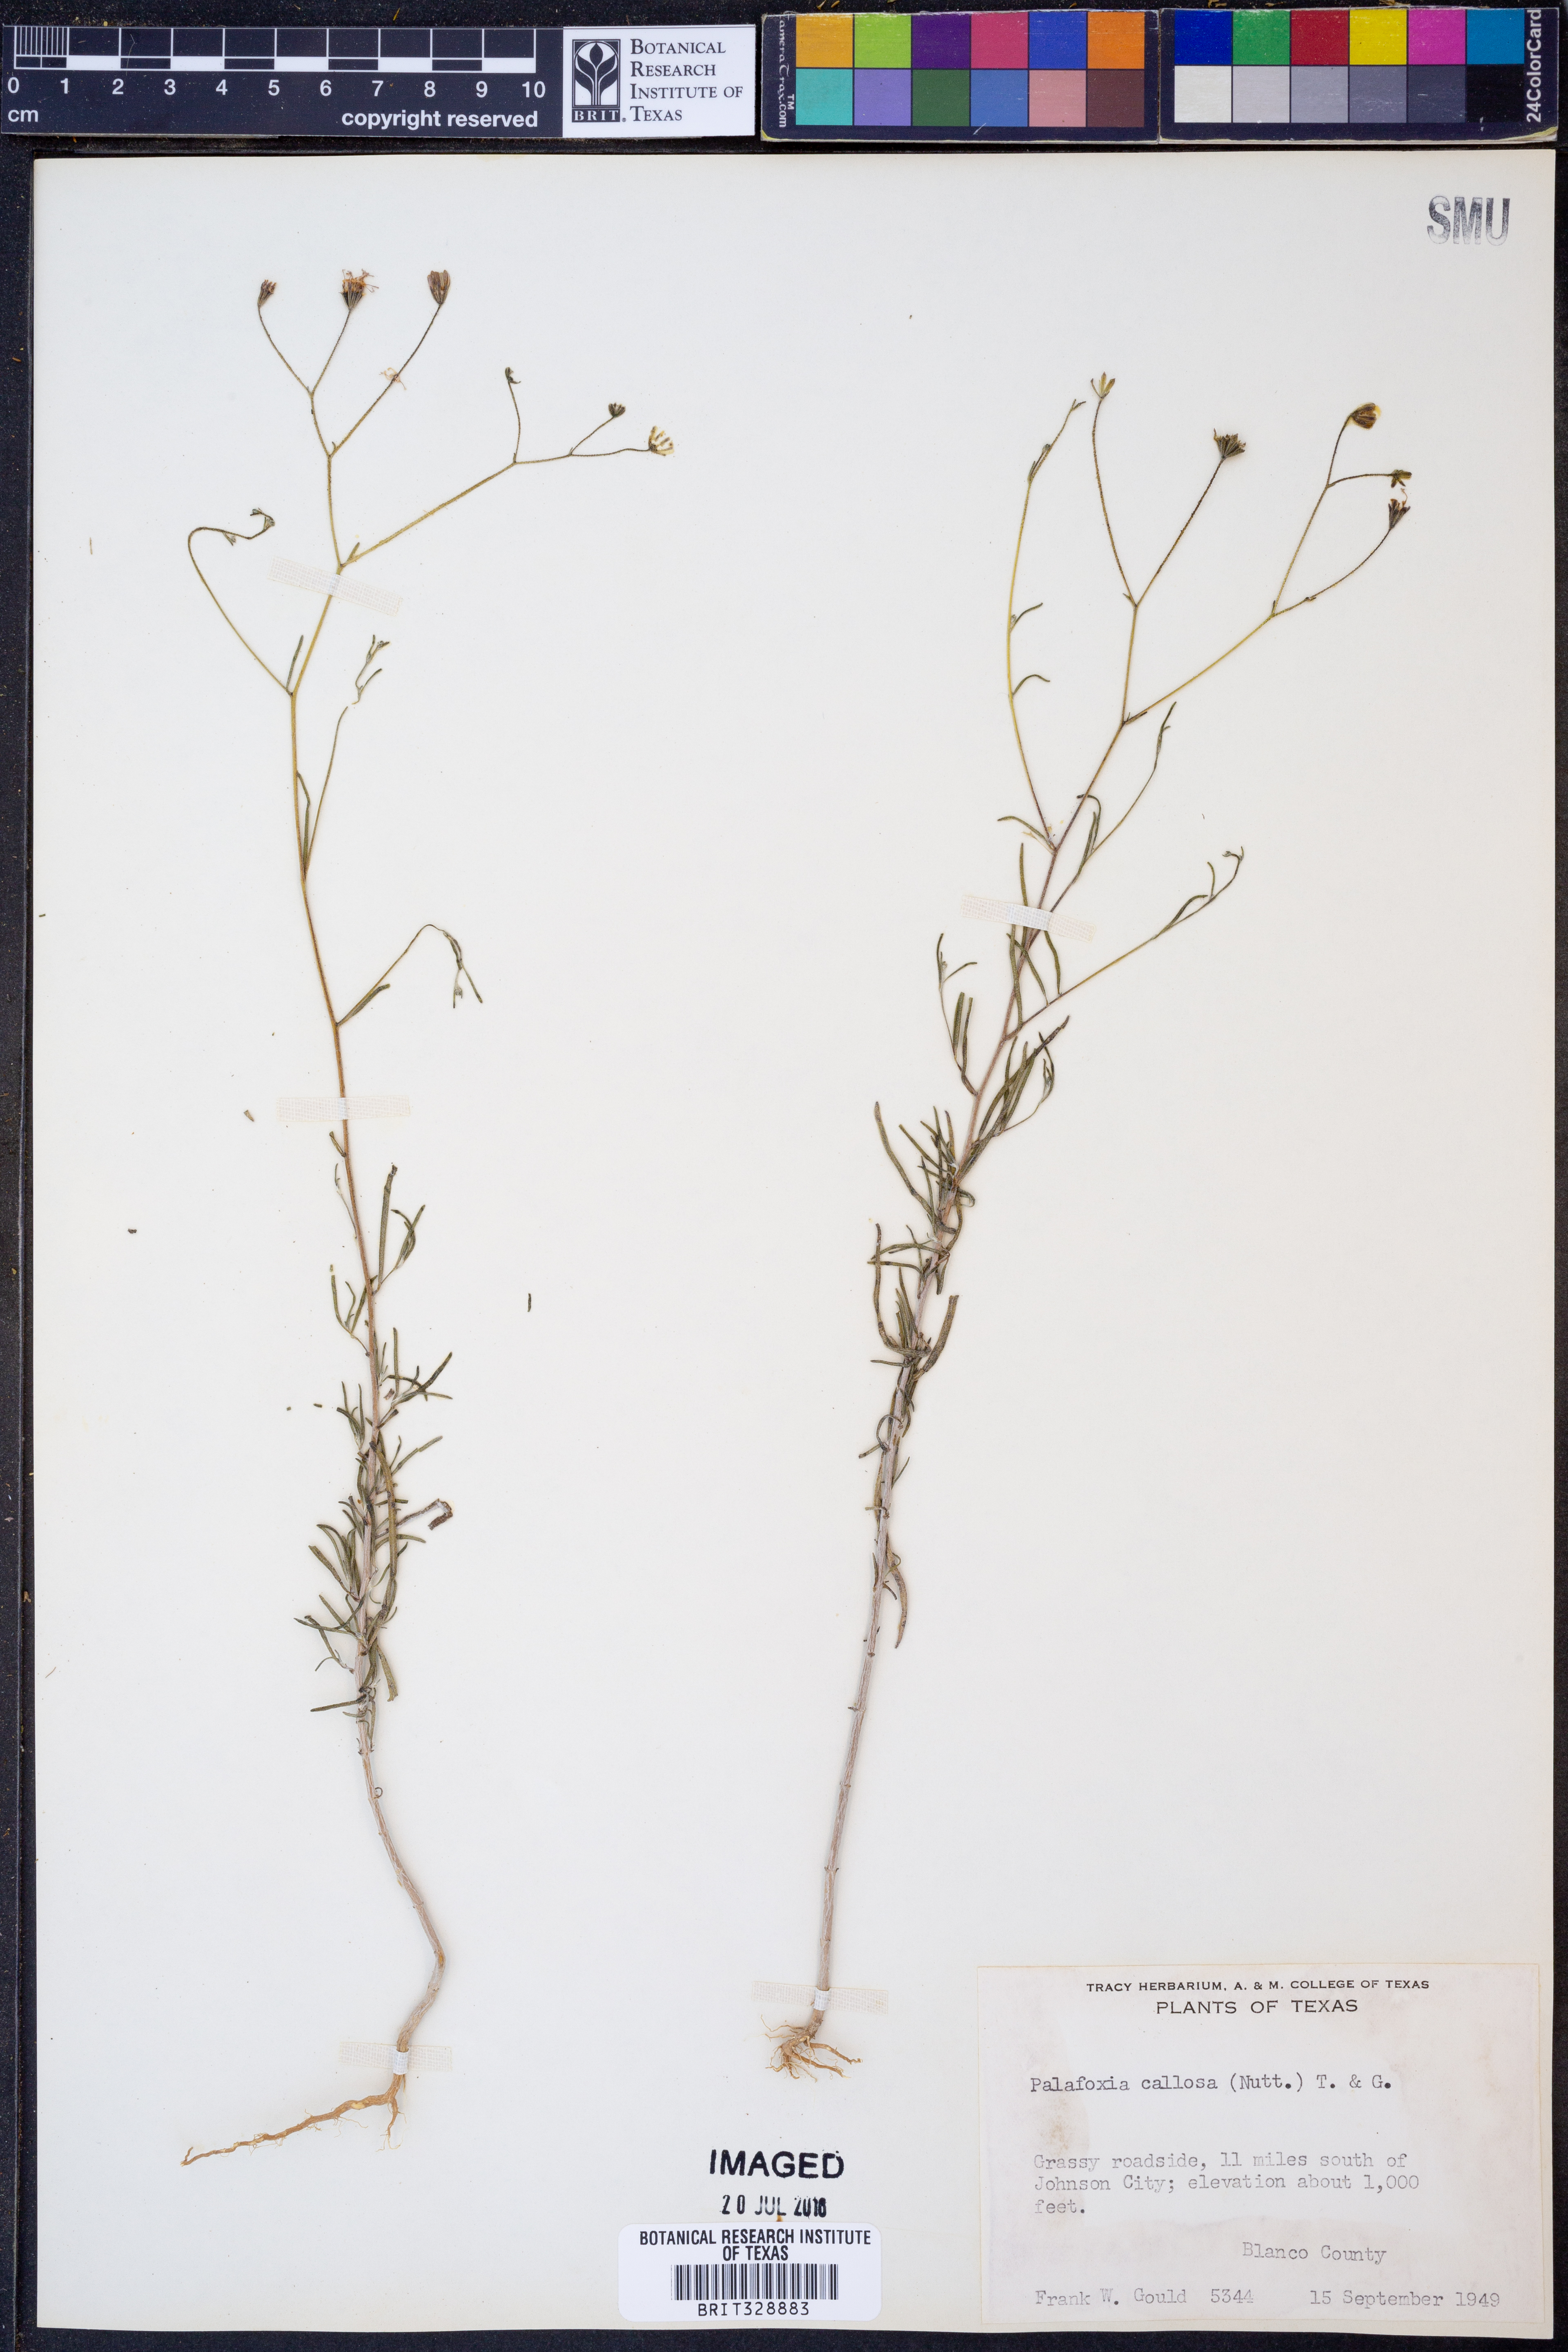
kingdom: Plantae
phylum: Tracheophyta
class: Magnoliopsida
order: Asterales
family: Asteraceae
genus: Palafoxia
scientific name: Palafoxia callosa
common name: Small palafox
